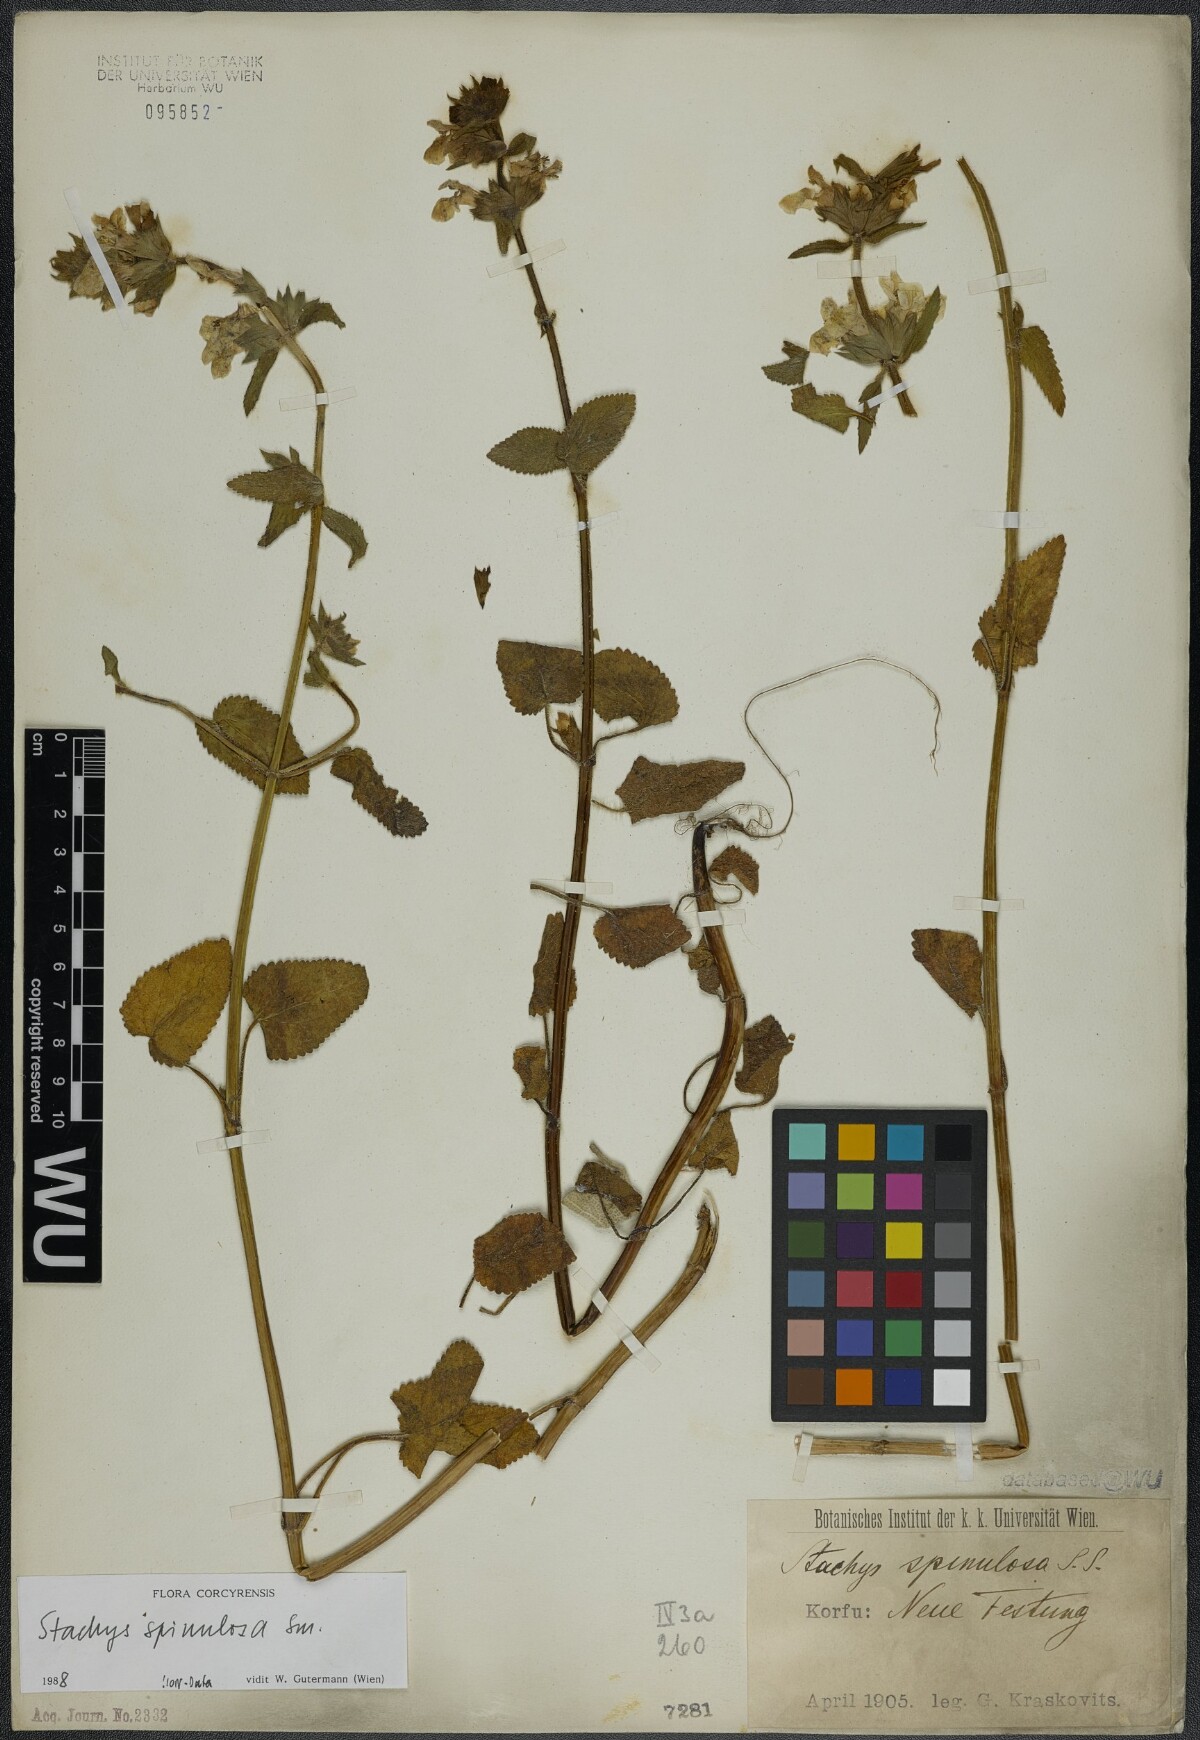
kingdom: Plantae
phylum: Tracheophyta
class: Magnoliopsida
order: Lamiales
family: Lamiaceae
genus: Stachys
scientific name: Stachys spinulosa
